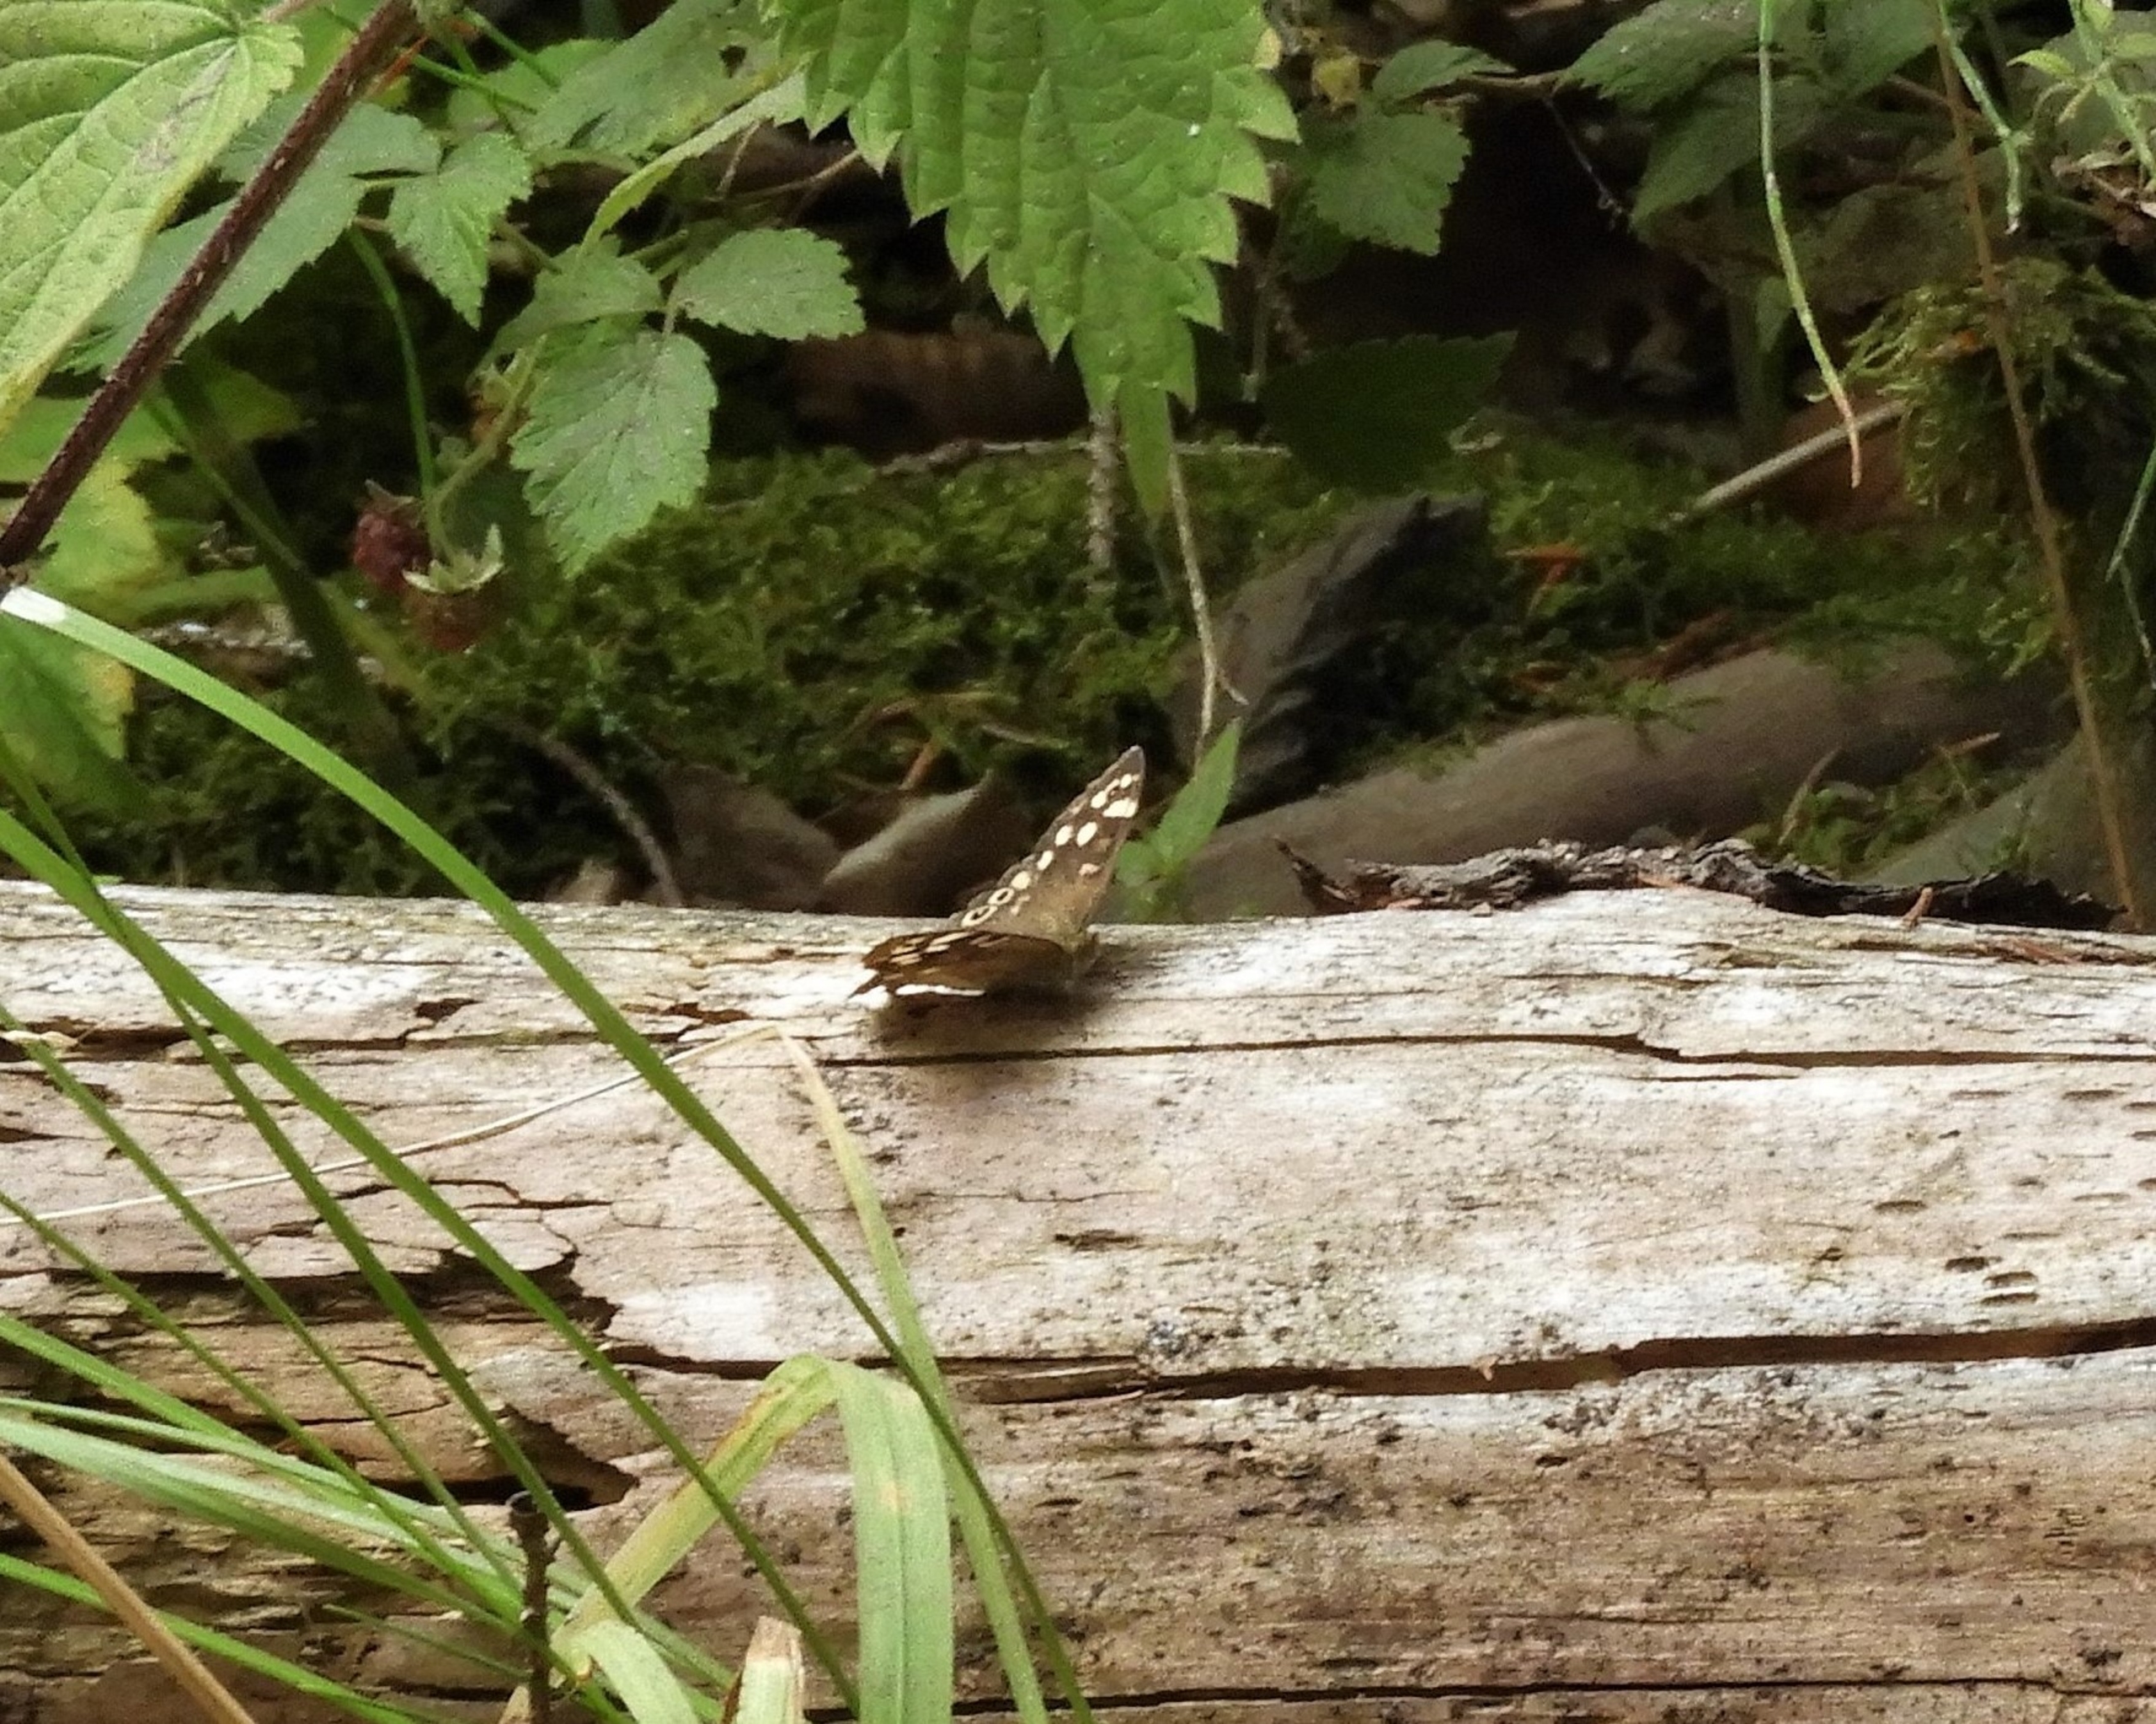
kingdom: Animalia
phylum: Arthropoda
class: Insecta
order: Lepidoptera
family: Nymphalidae
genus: Pararge
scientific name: Pararge aegeria
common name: Skovrandøje
